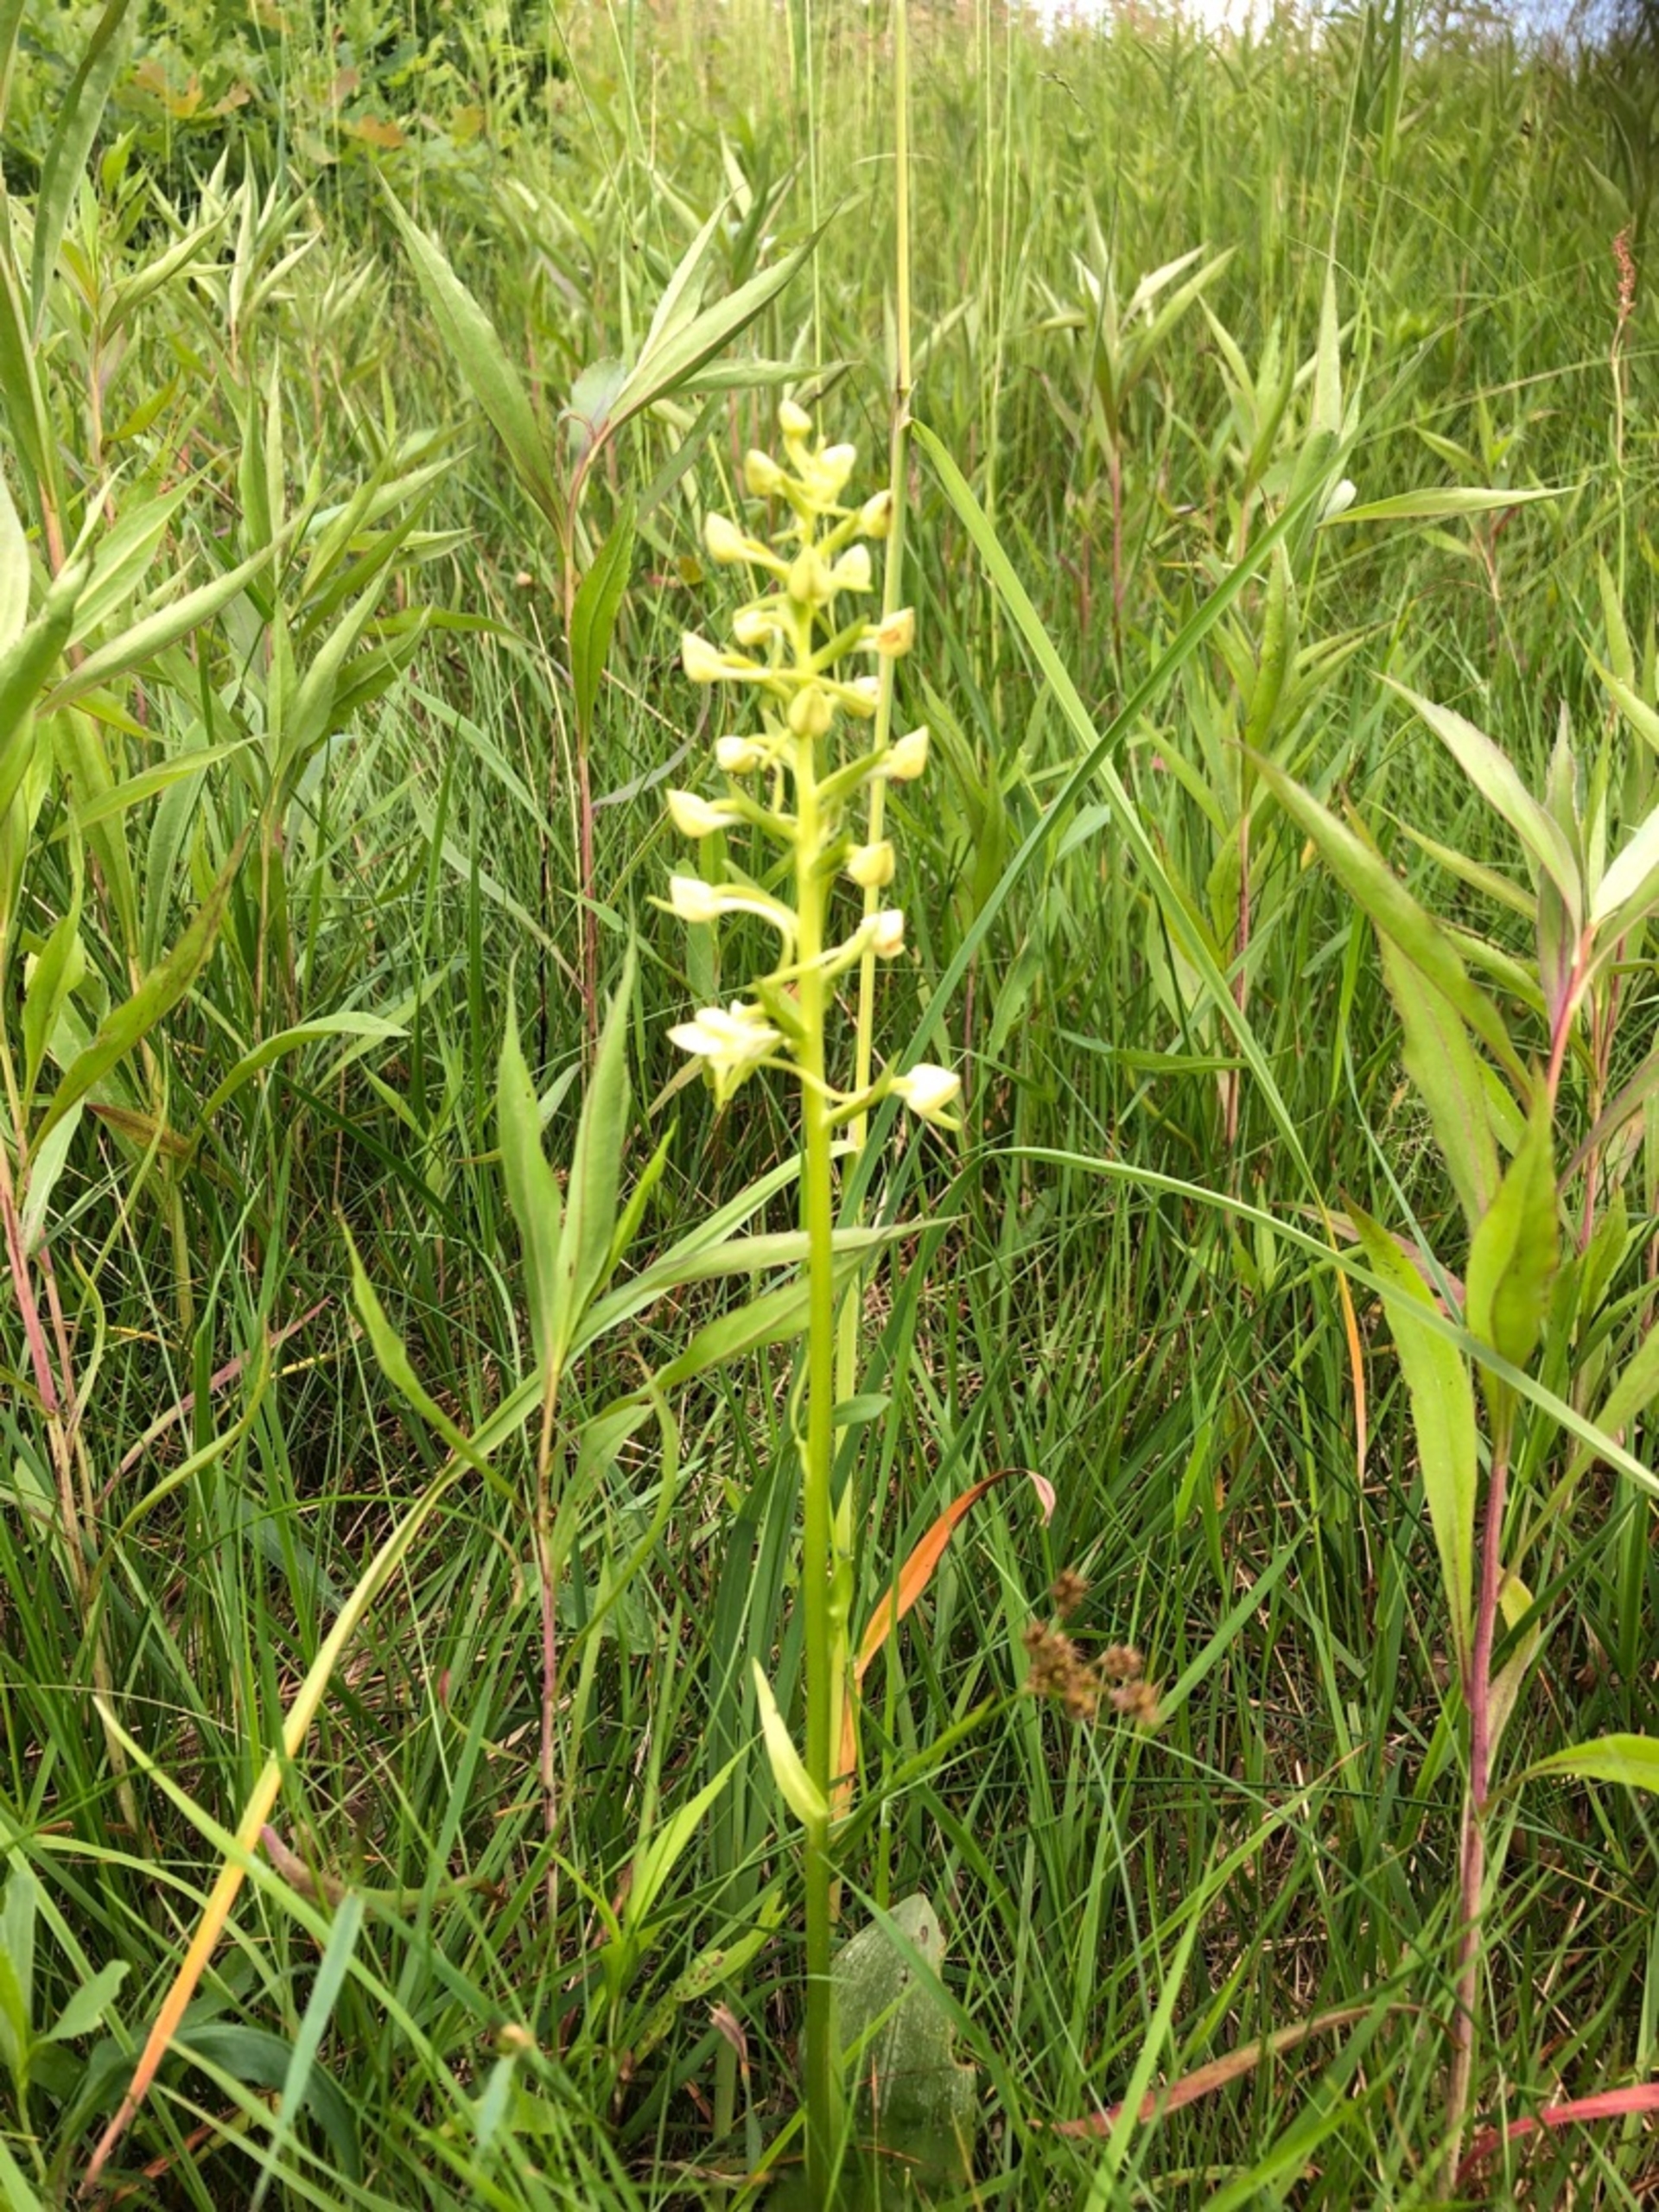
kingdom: Plantae
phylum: Tracheophyta
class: Liliopsida
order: Asparagales
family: Orchidaceae
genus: Platanthera
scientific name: Platanthera chlorantha
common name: Skov-gøgelilje
